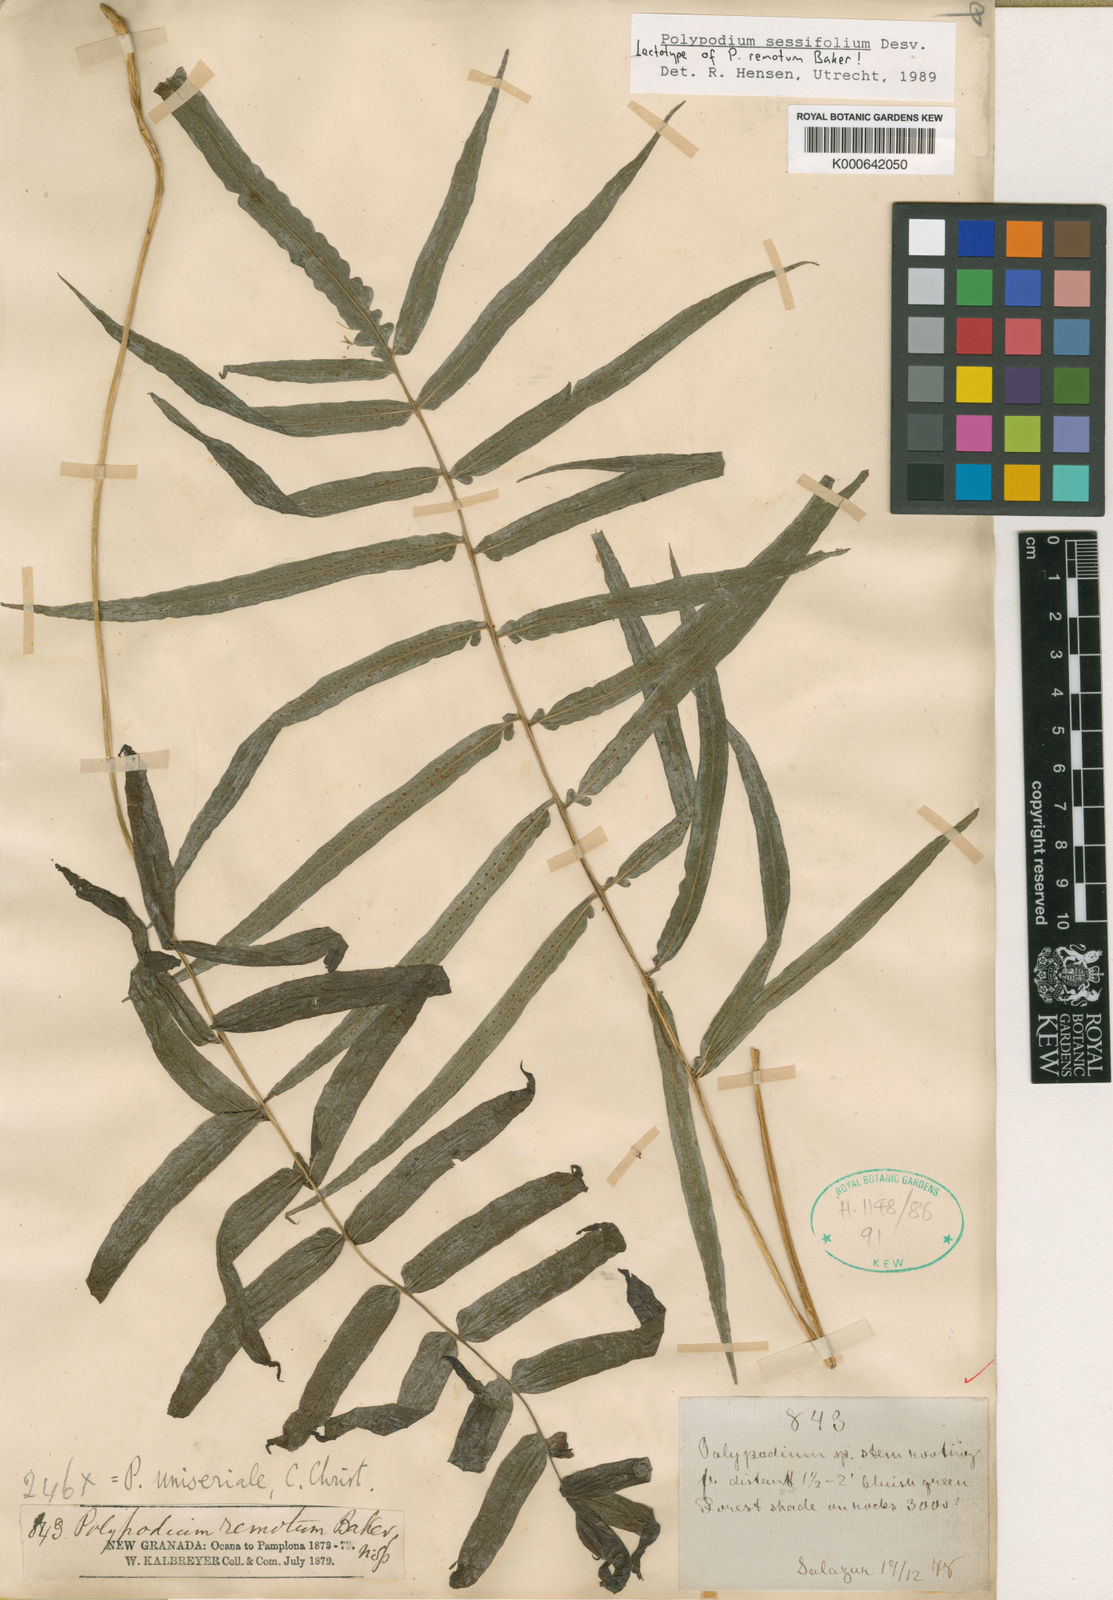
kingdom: Plantae
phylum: Tracheophyta
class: Polypodiopsida
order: Polypodiales
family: Polypodiaceae
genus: Polypodium
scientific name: Polypodium
